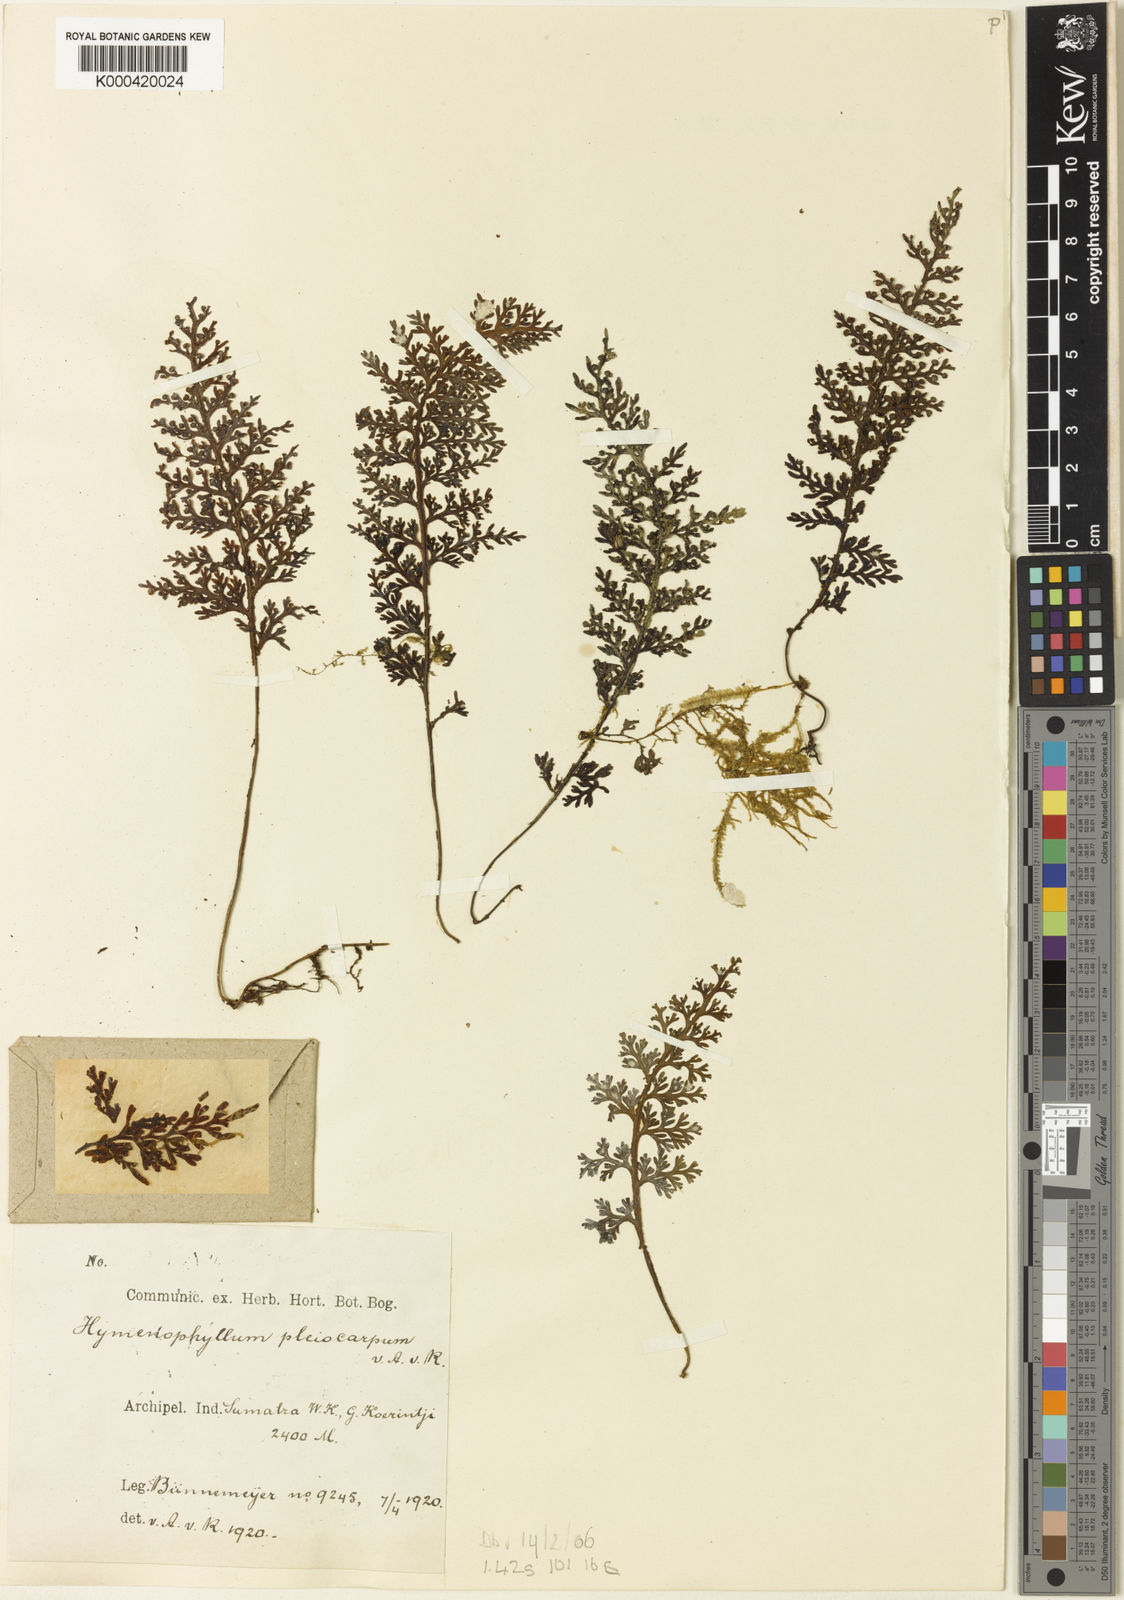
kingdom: Plantae
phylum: Tracheophyta
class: Polypodiopsida
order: Hymenophyllales
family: Hymenophyllaceae
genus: Hymenophyllum
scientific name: Hymenophyllum badium
